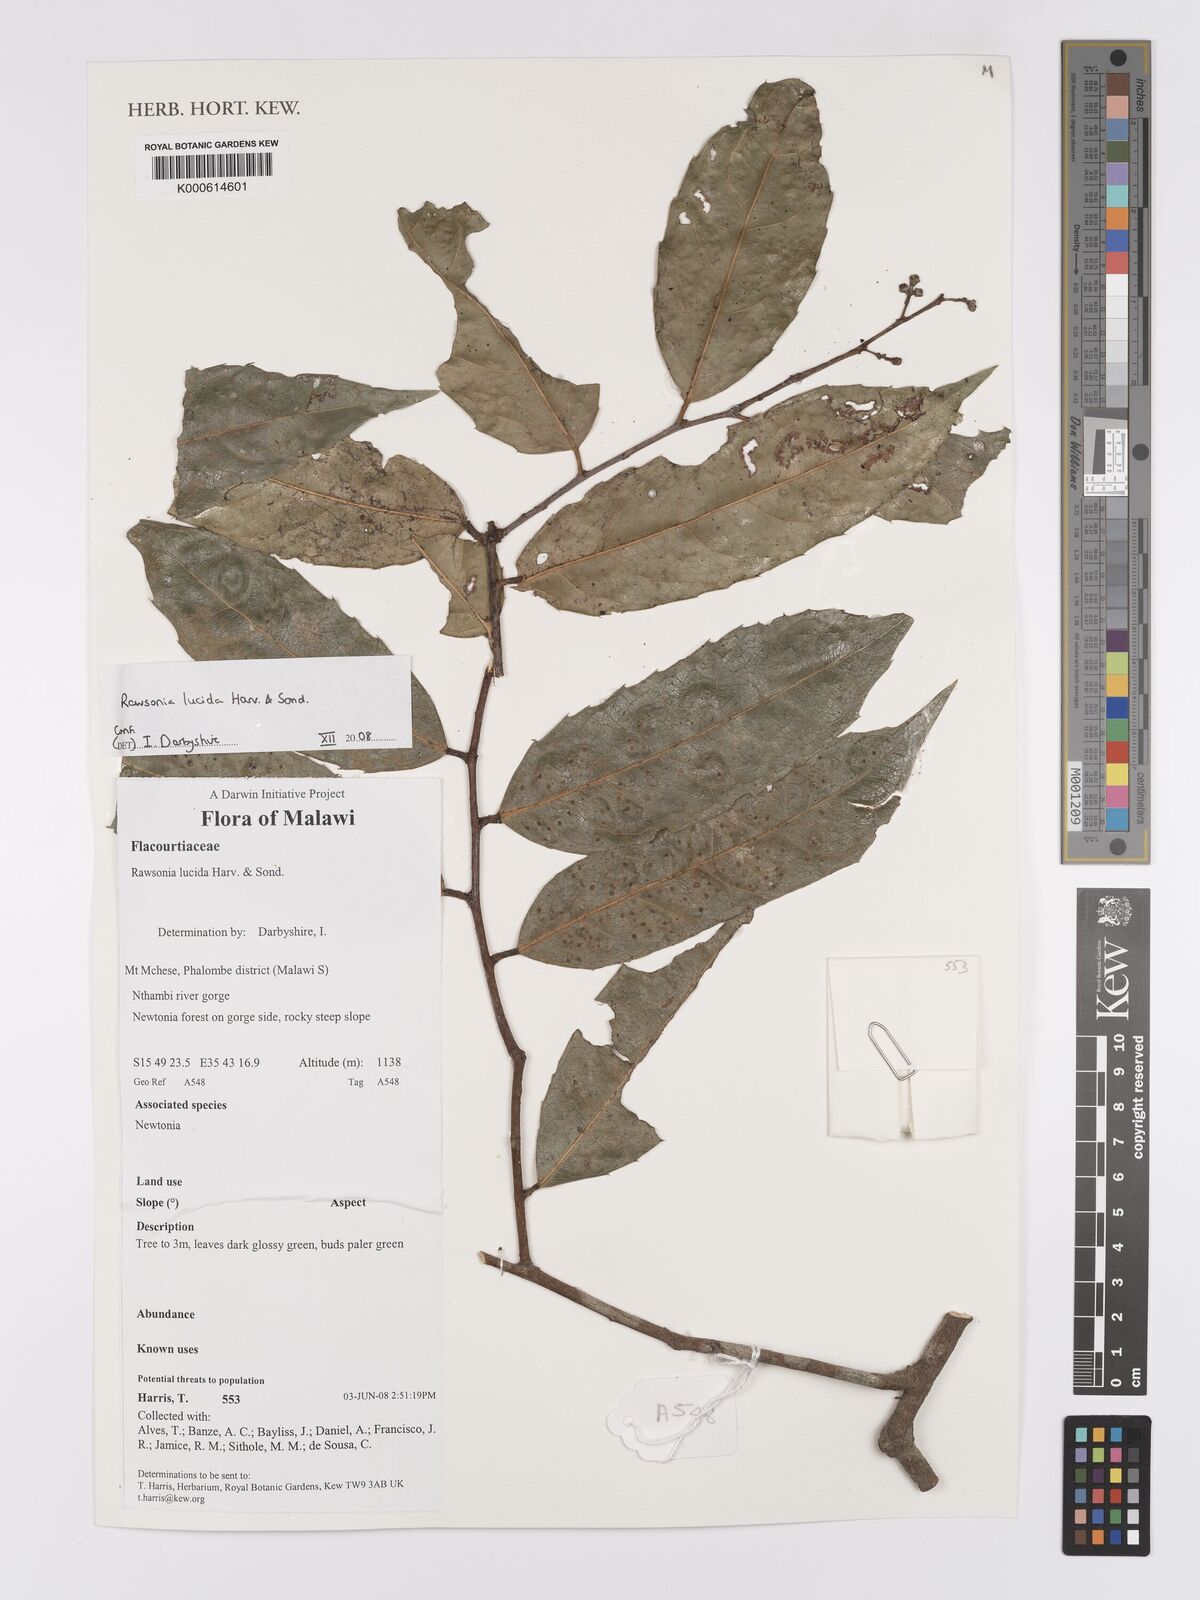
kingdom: Plantae
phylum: Tracheophyta
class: Magnoliopsida
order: Malpighiales
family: Achariaceae
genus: Rawsonia
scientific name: Rawsonia lucida
